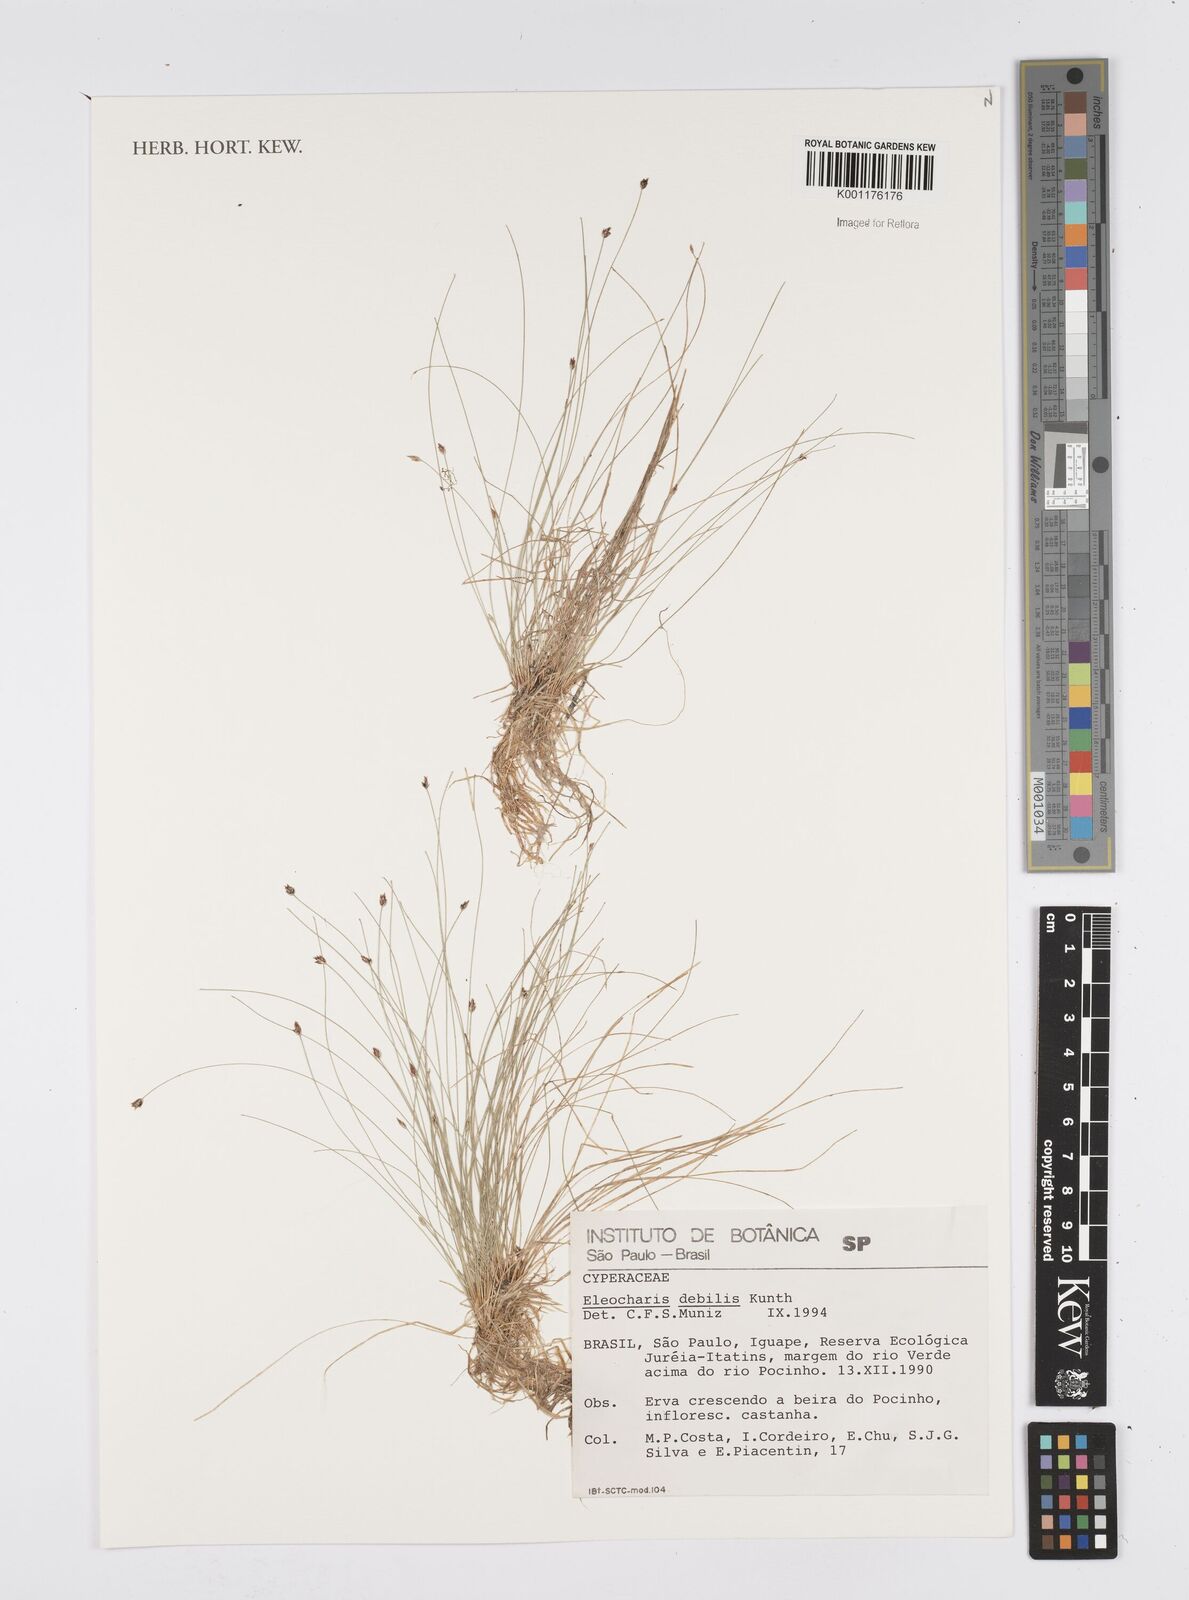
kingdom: Plantae
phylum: Tracheophyta
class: Liliopsida
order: Poales
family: Cyperaceae
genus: Eleocharis
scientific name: Eleocharis maculosa
